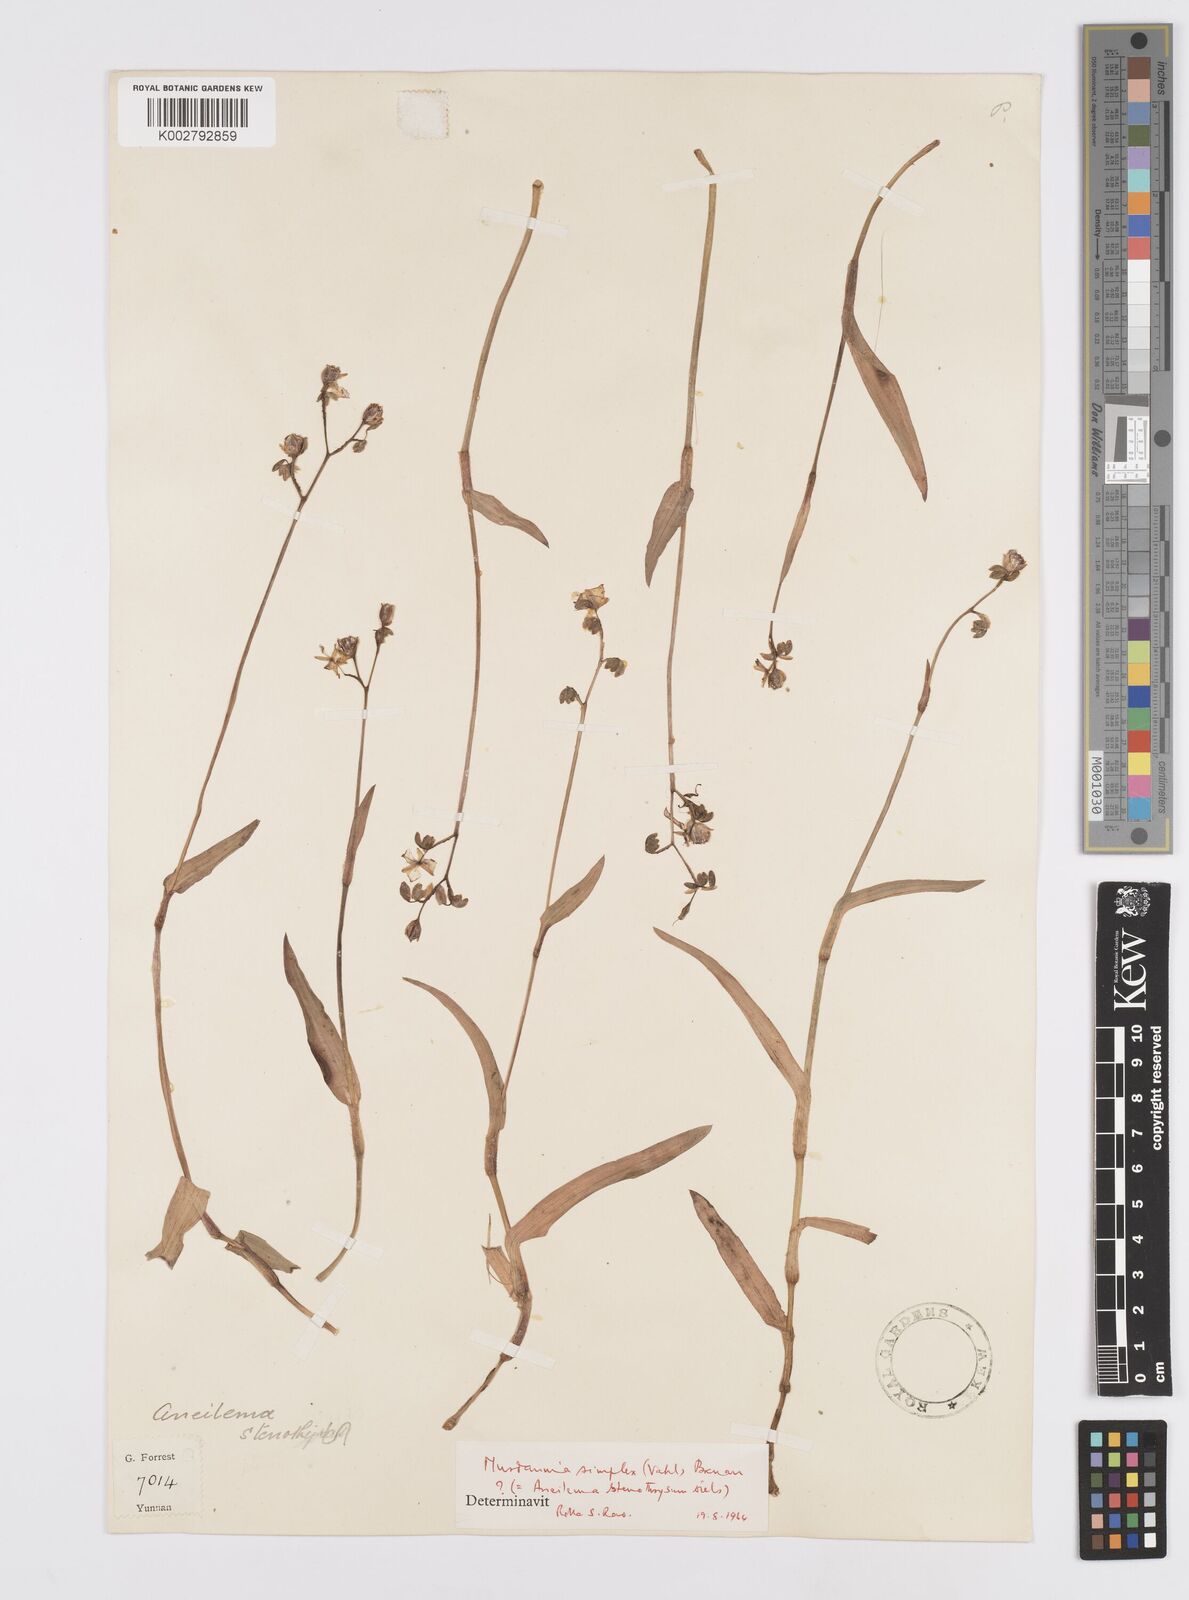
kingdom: Plantae
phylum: Tracheophyta
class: Liliopsida
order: Commelinales
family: Commelinaceae
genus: Murdannia
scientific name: Murdannia simplex
